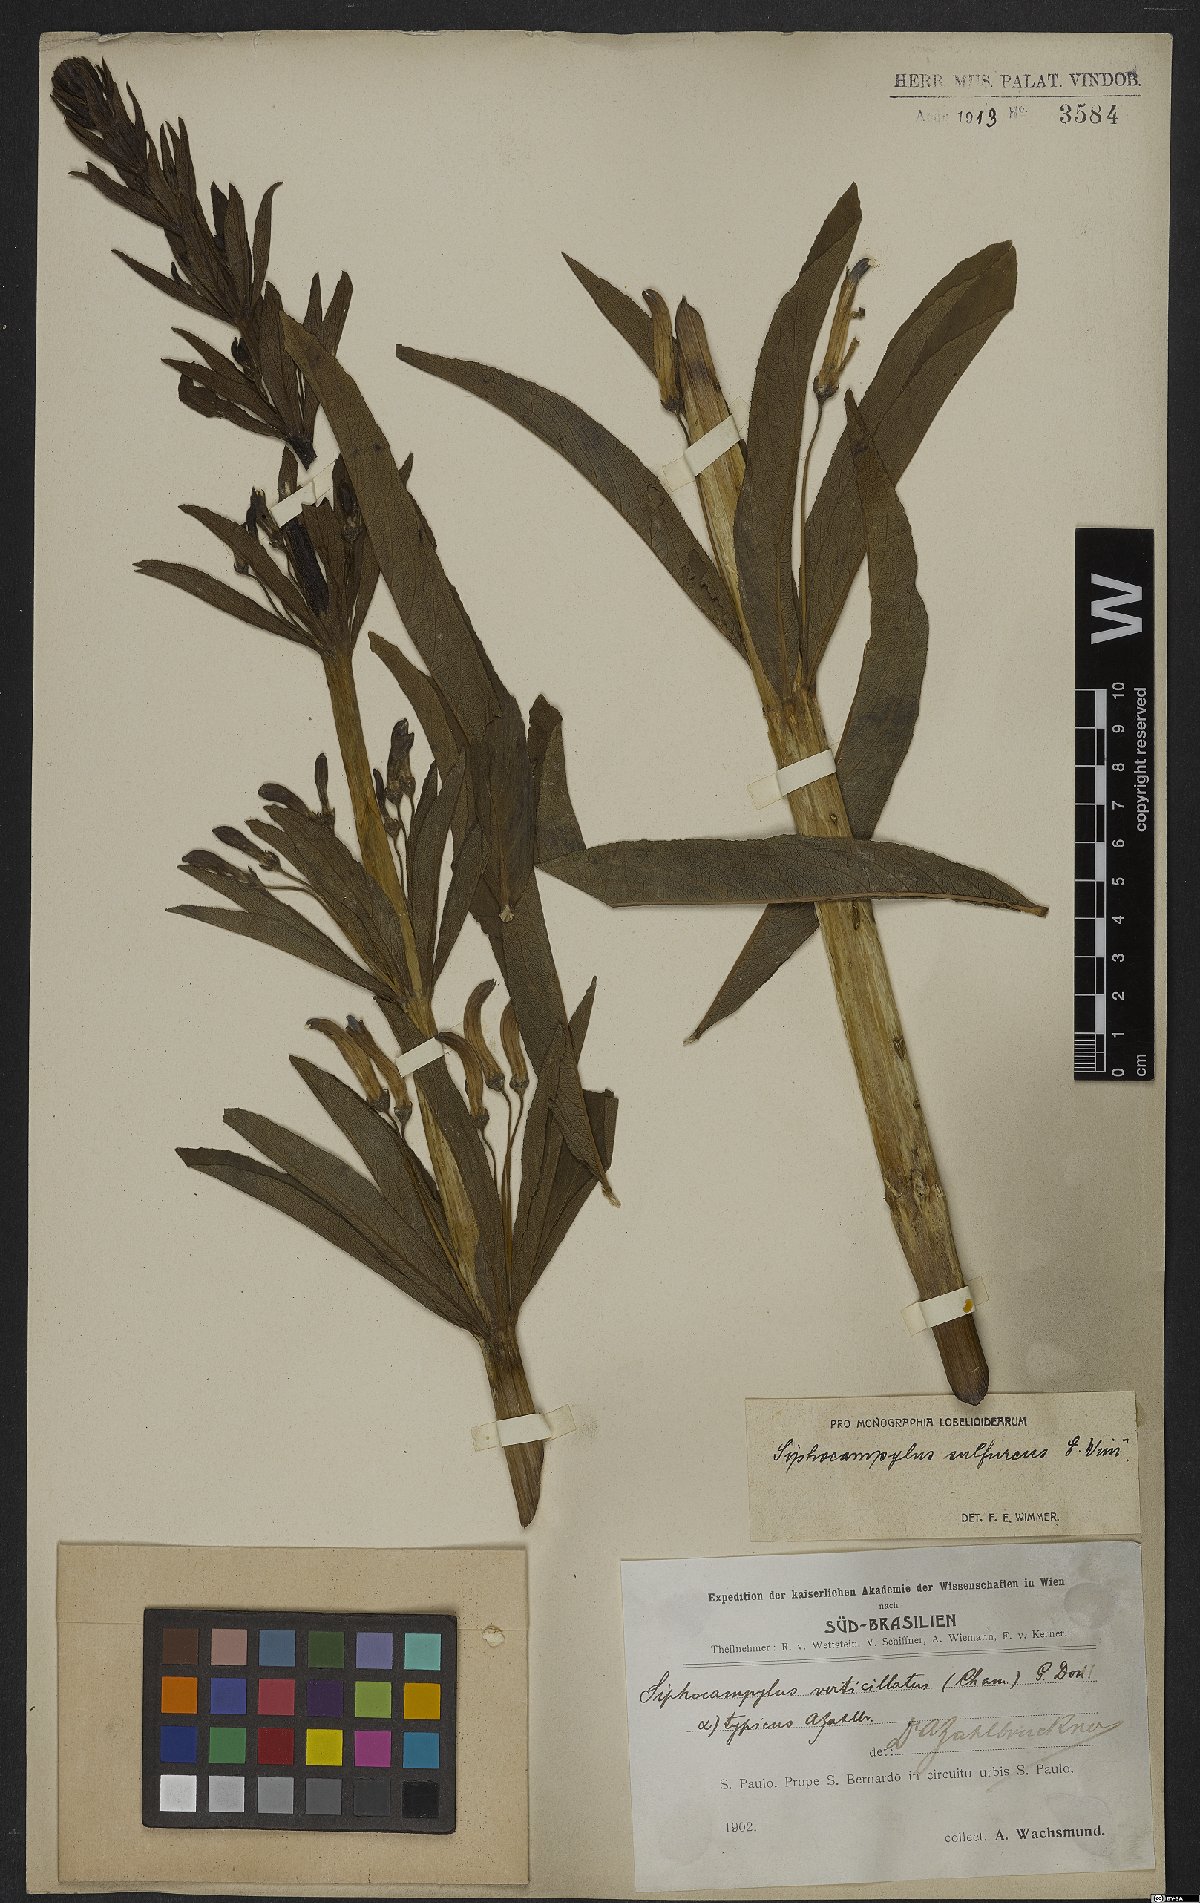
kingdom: Plantae
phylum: Tracheophyta
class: Magnoliopsida
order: Asterales
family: Campanulaceae
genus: Siphocampylus
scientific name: Siphocampylus sulfureus
